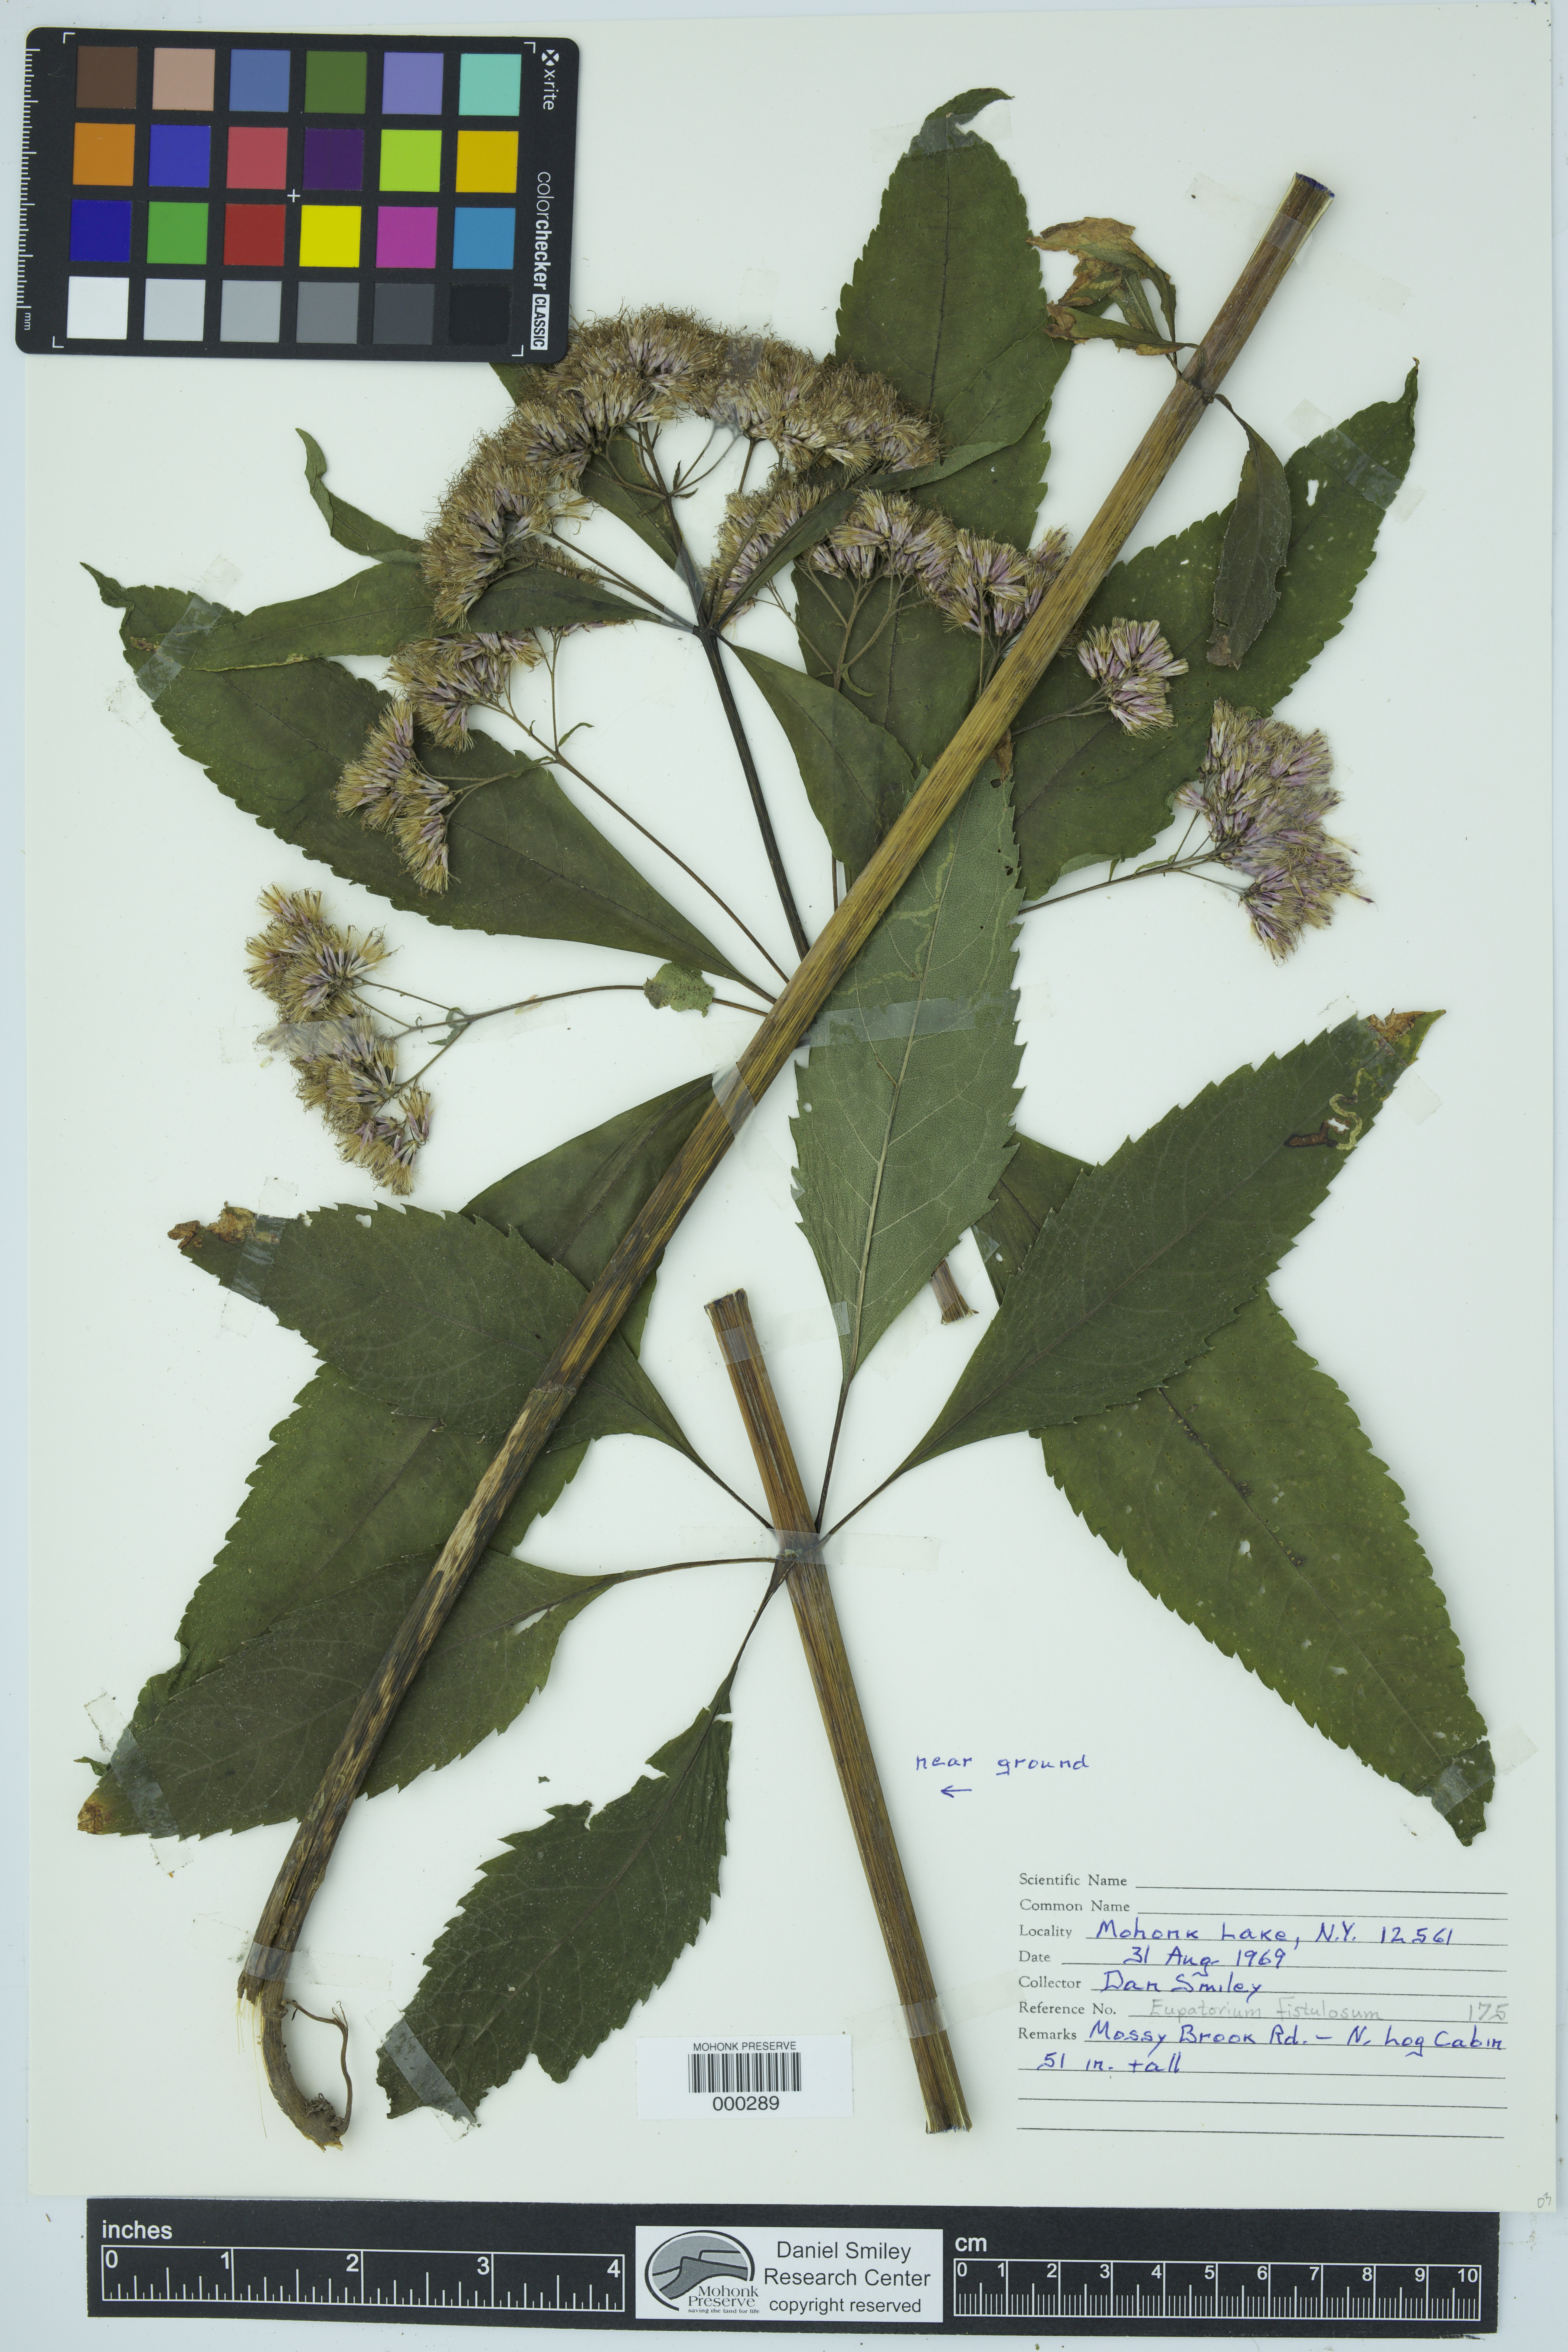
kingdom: Plantae
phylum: Tracheophyta
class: Magnoliopsida
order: Asterales
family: Asteraceae
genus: Eutrochium
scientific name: Eutrochium fistulosum
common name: Trumpetweed
